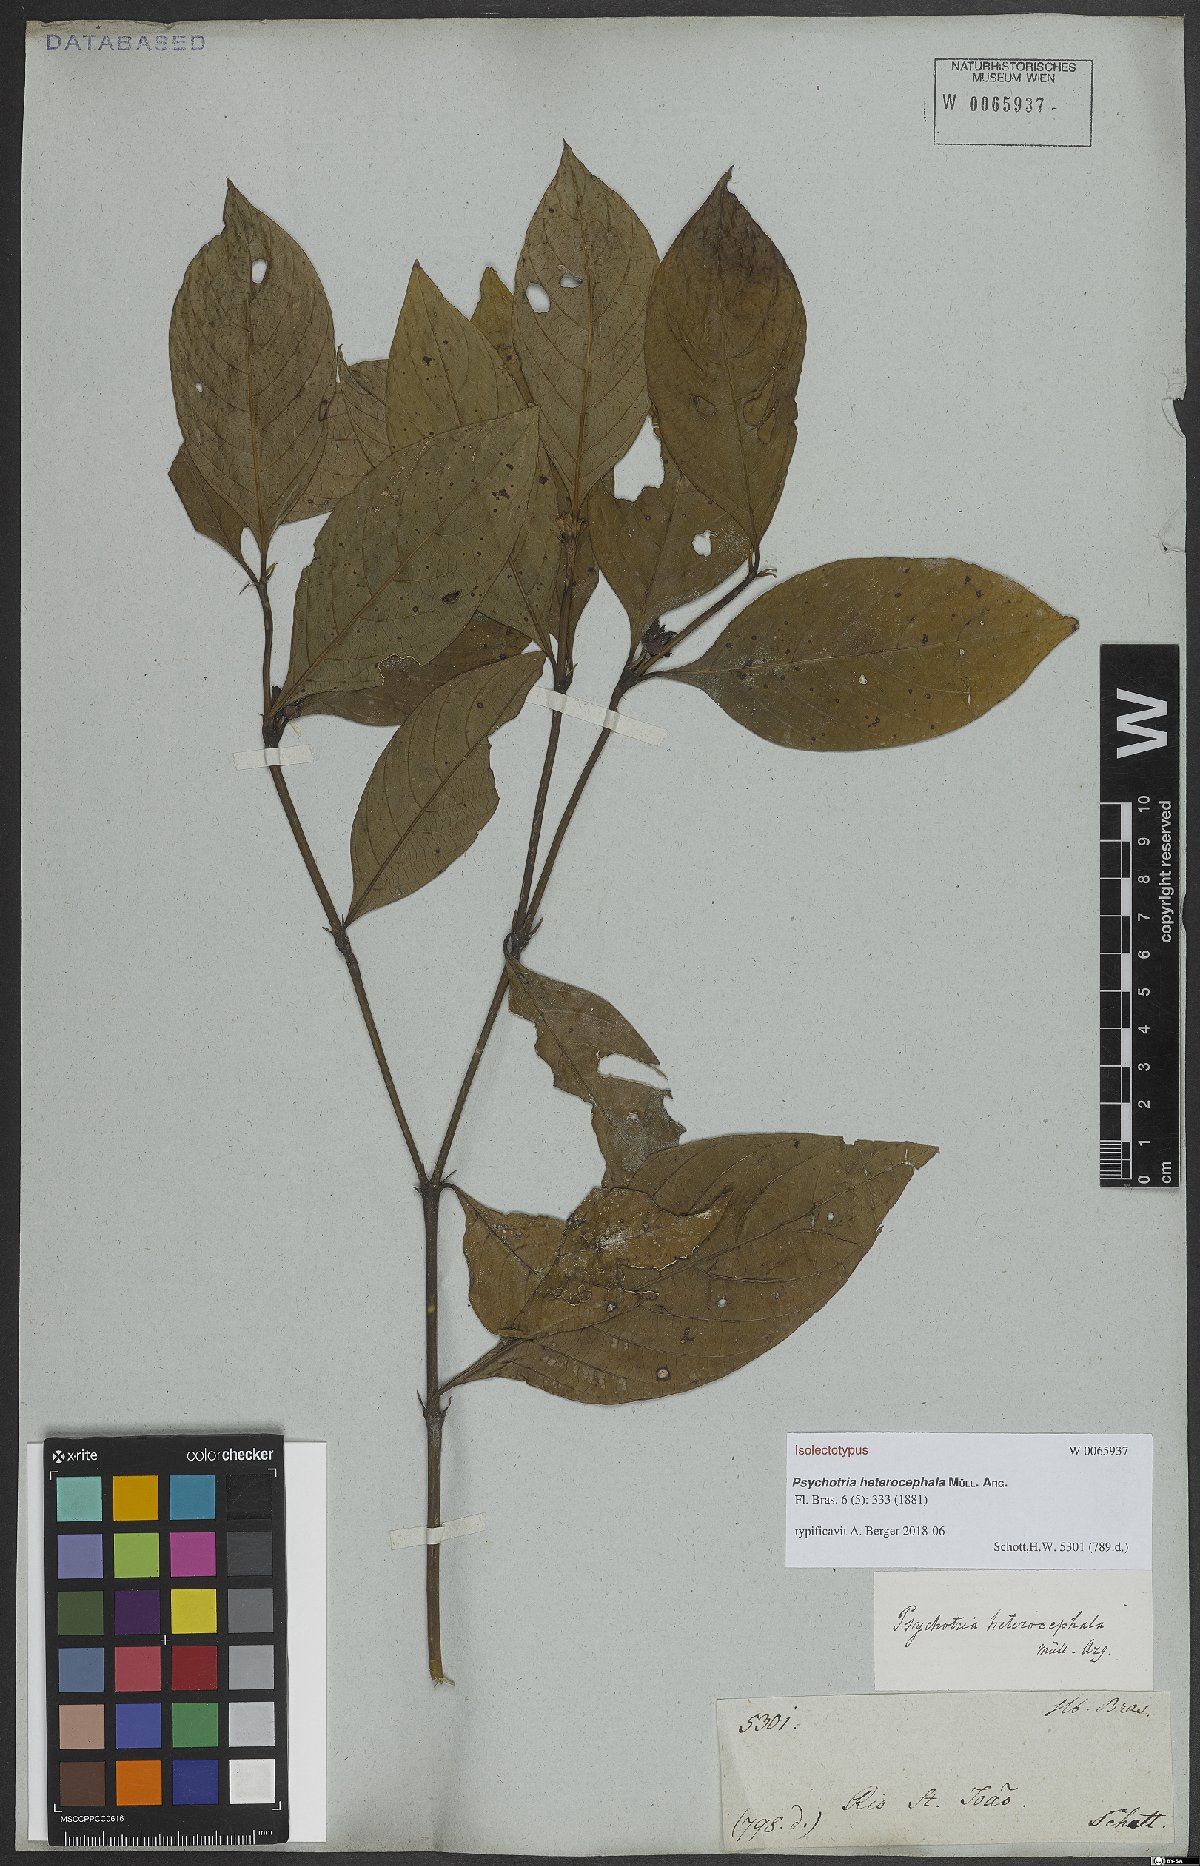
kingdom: Plantae
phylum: Tracheophyta
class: Magnoliopsida
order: Gentianales
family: Rubiaceae
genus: Palicourea
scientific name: Palicourea hoffmannseggiana
